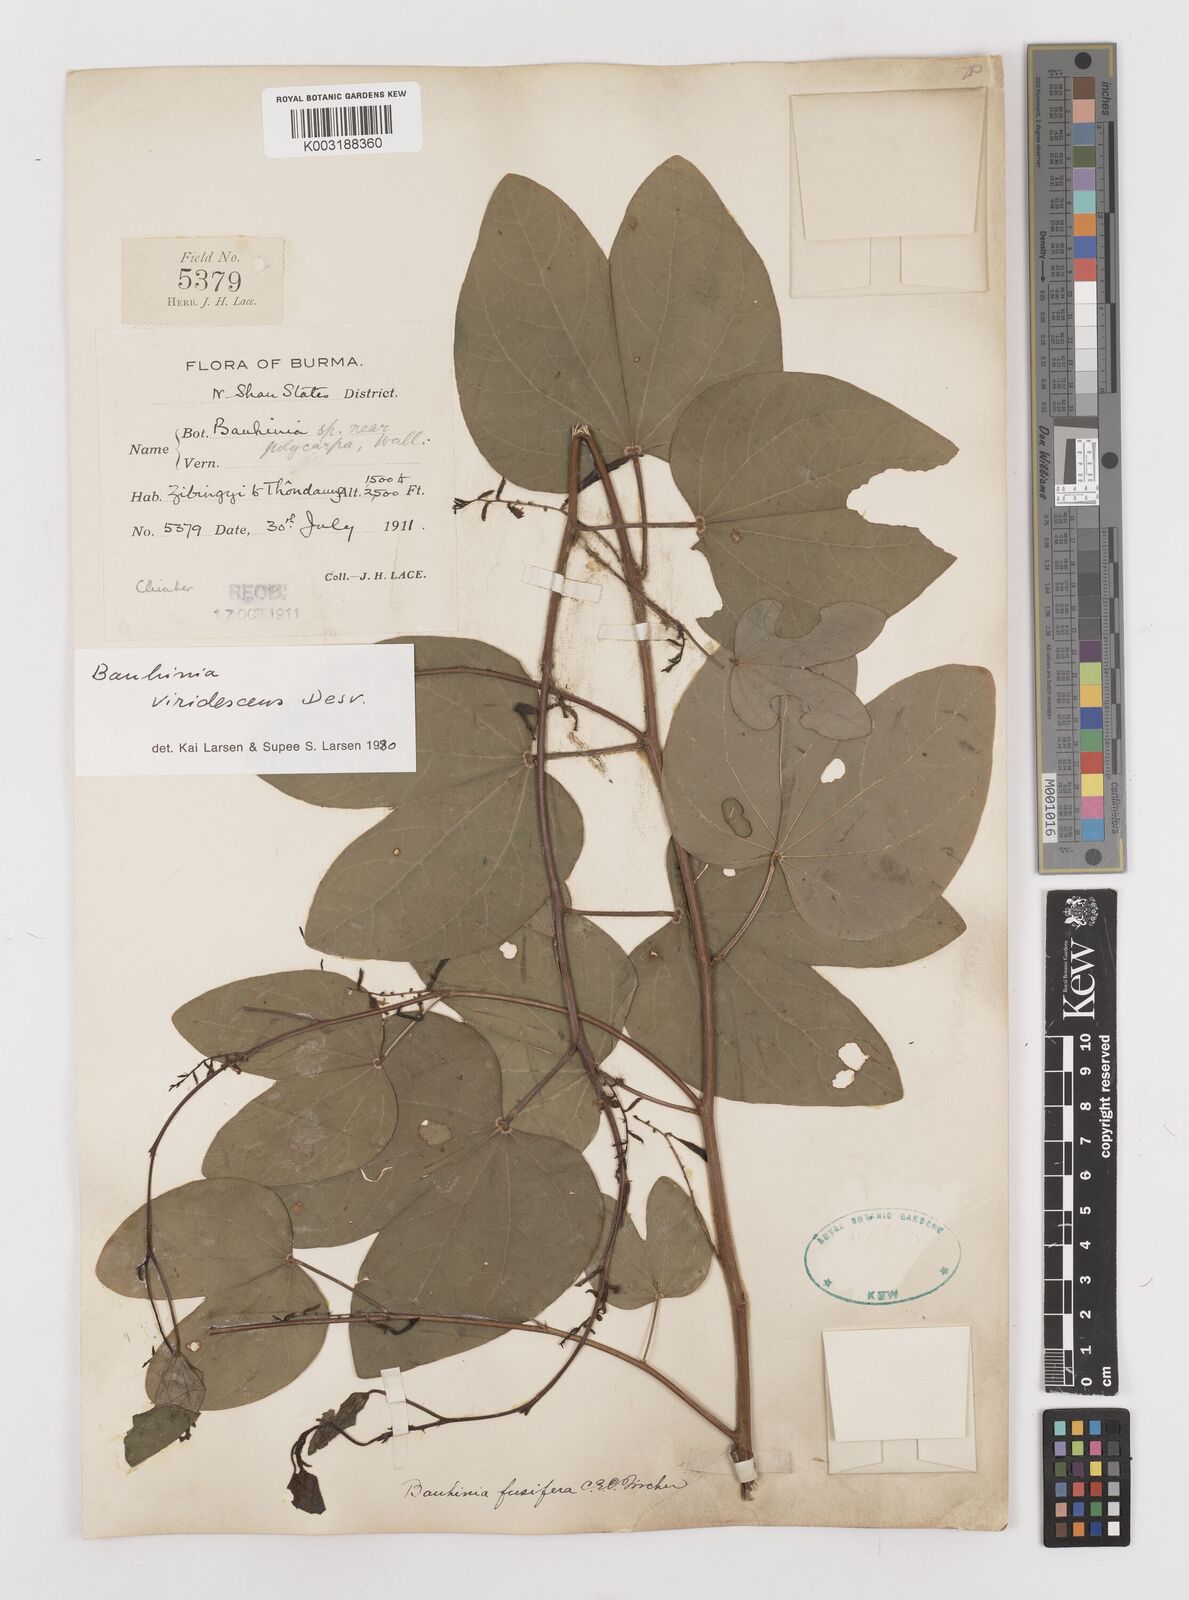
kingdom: Plantae
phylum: Tracheophyta
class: Magnoliopsida
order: Fabales
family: Fabaceae
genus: Bauhinia
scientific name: Bauhinia viridescens
